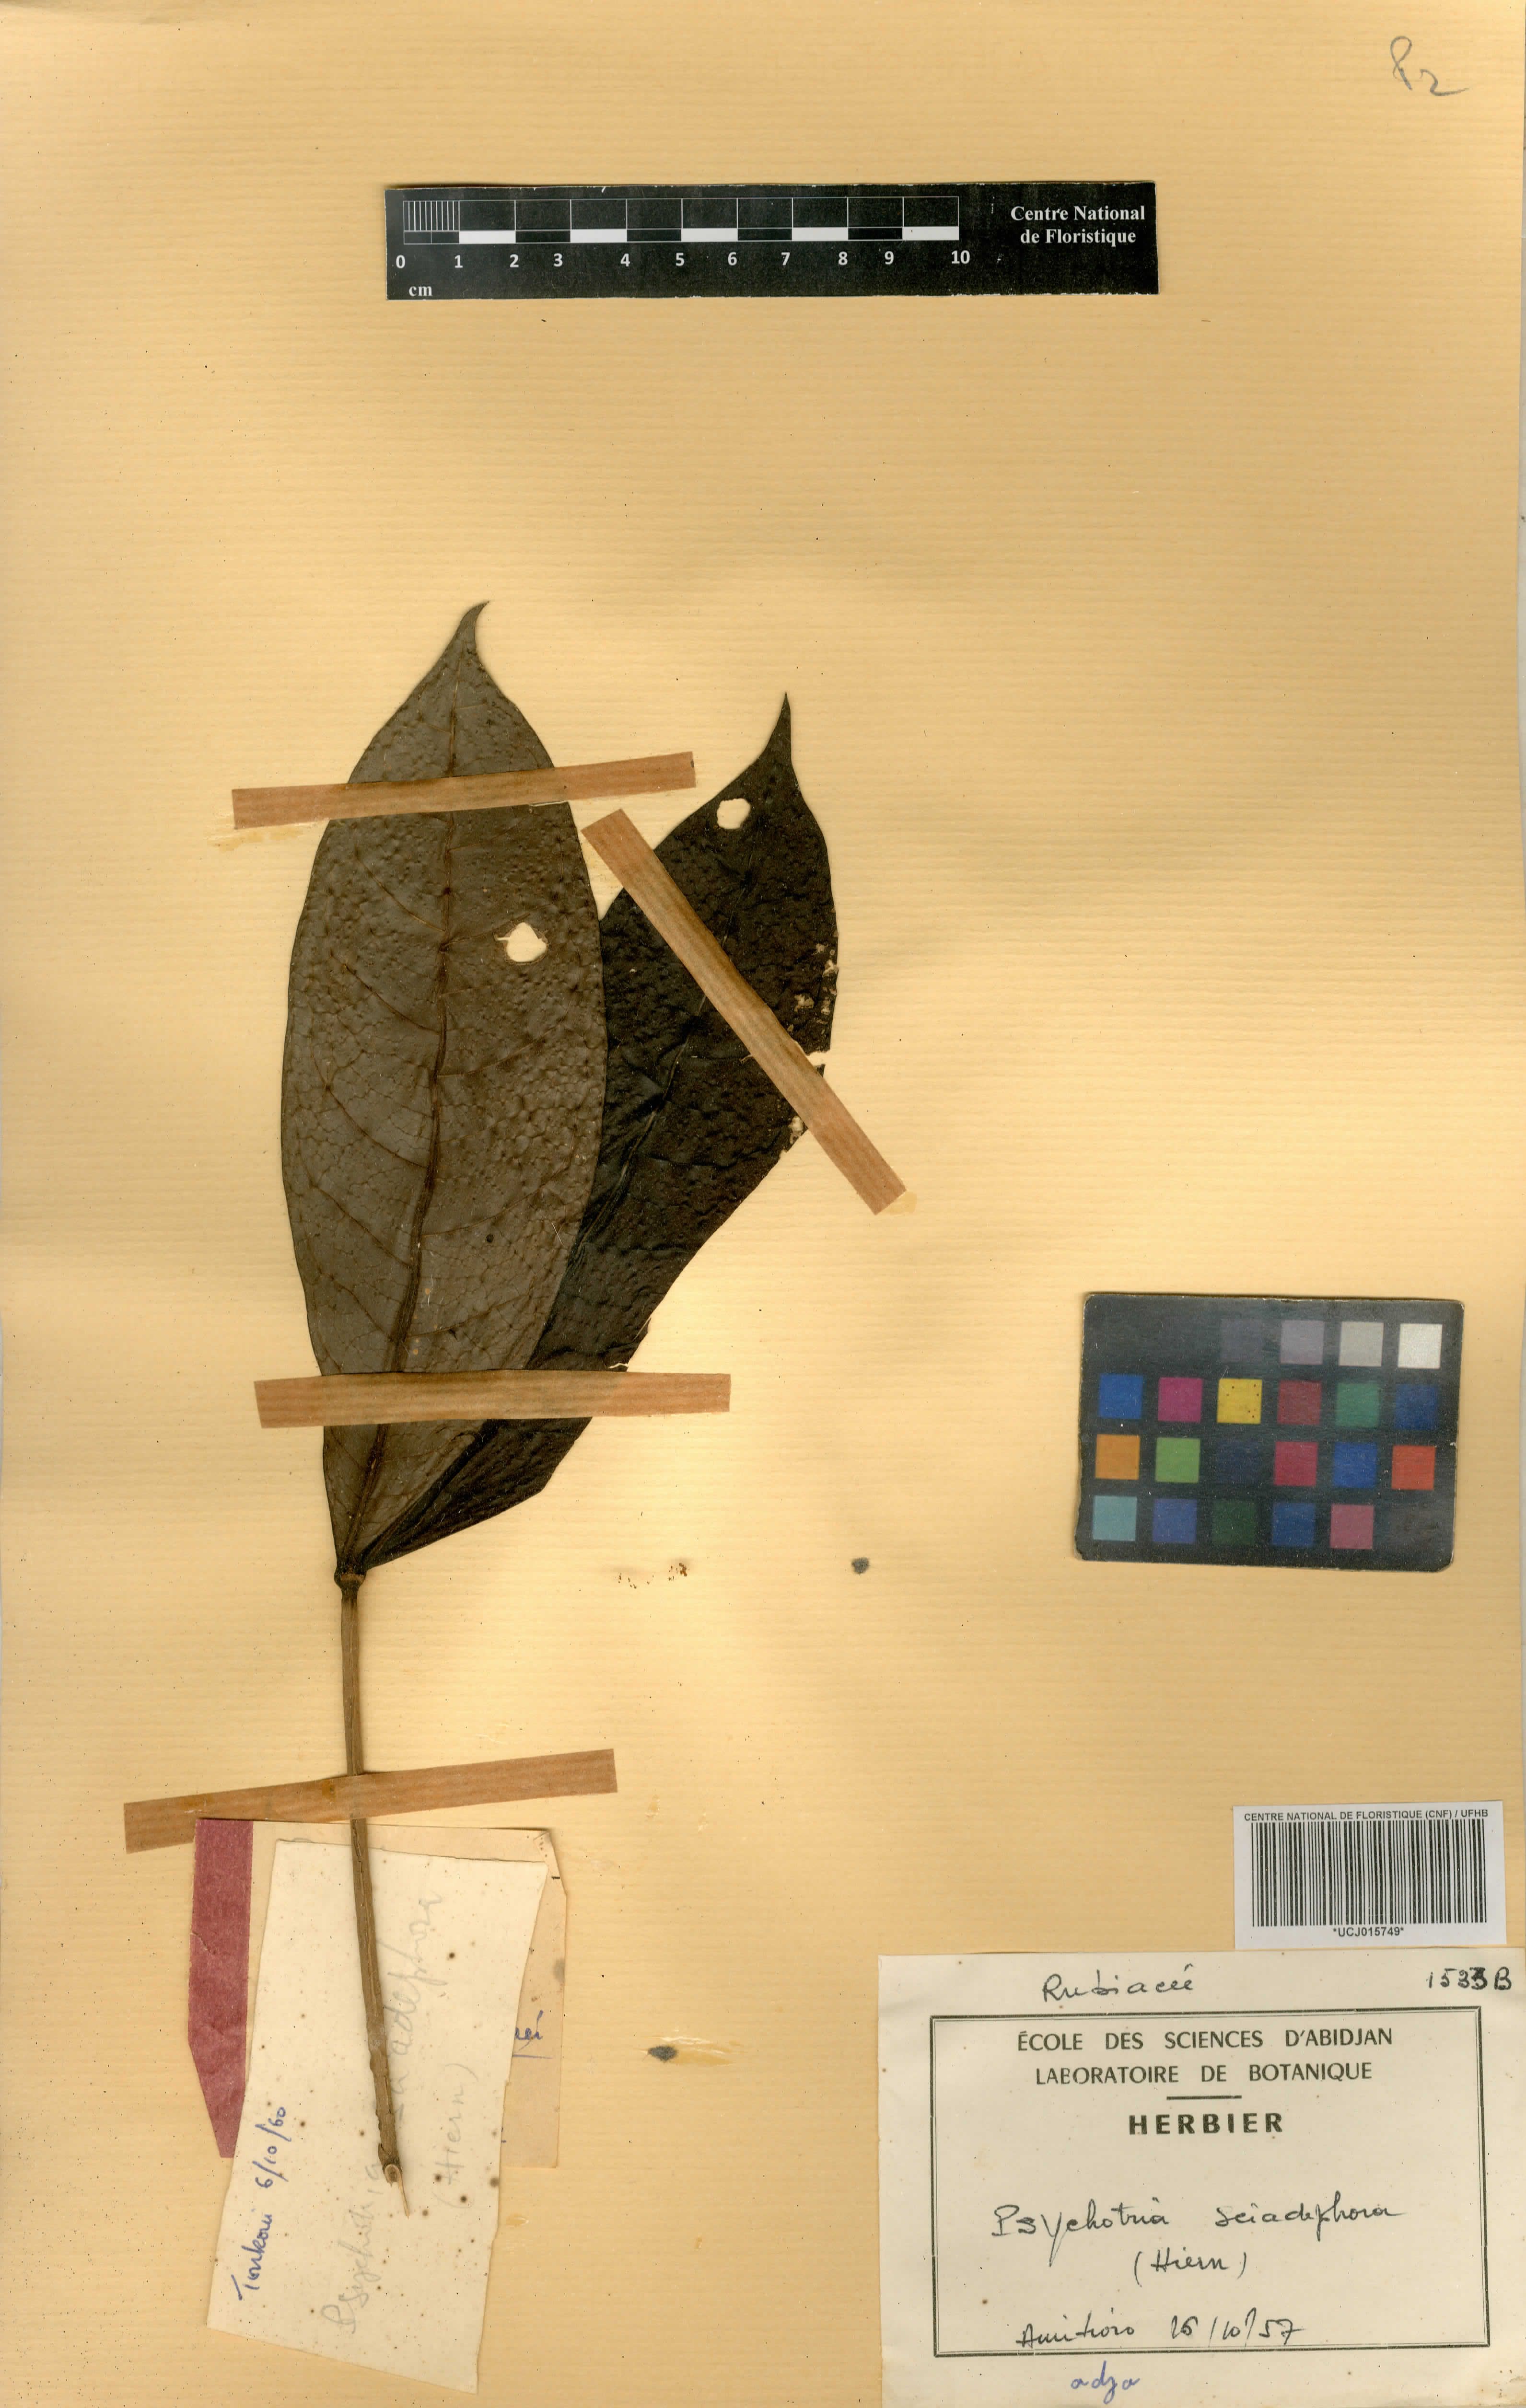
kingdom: Plantae
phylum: Tracheophyta
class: Magnoliopsida
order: Gentianales
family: Rubiaceae
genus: Eumachia
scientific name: Eumachia sciadephora
